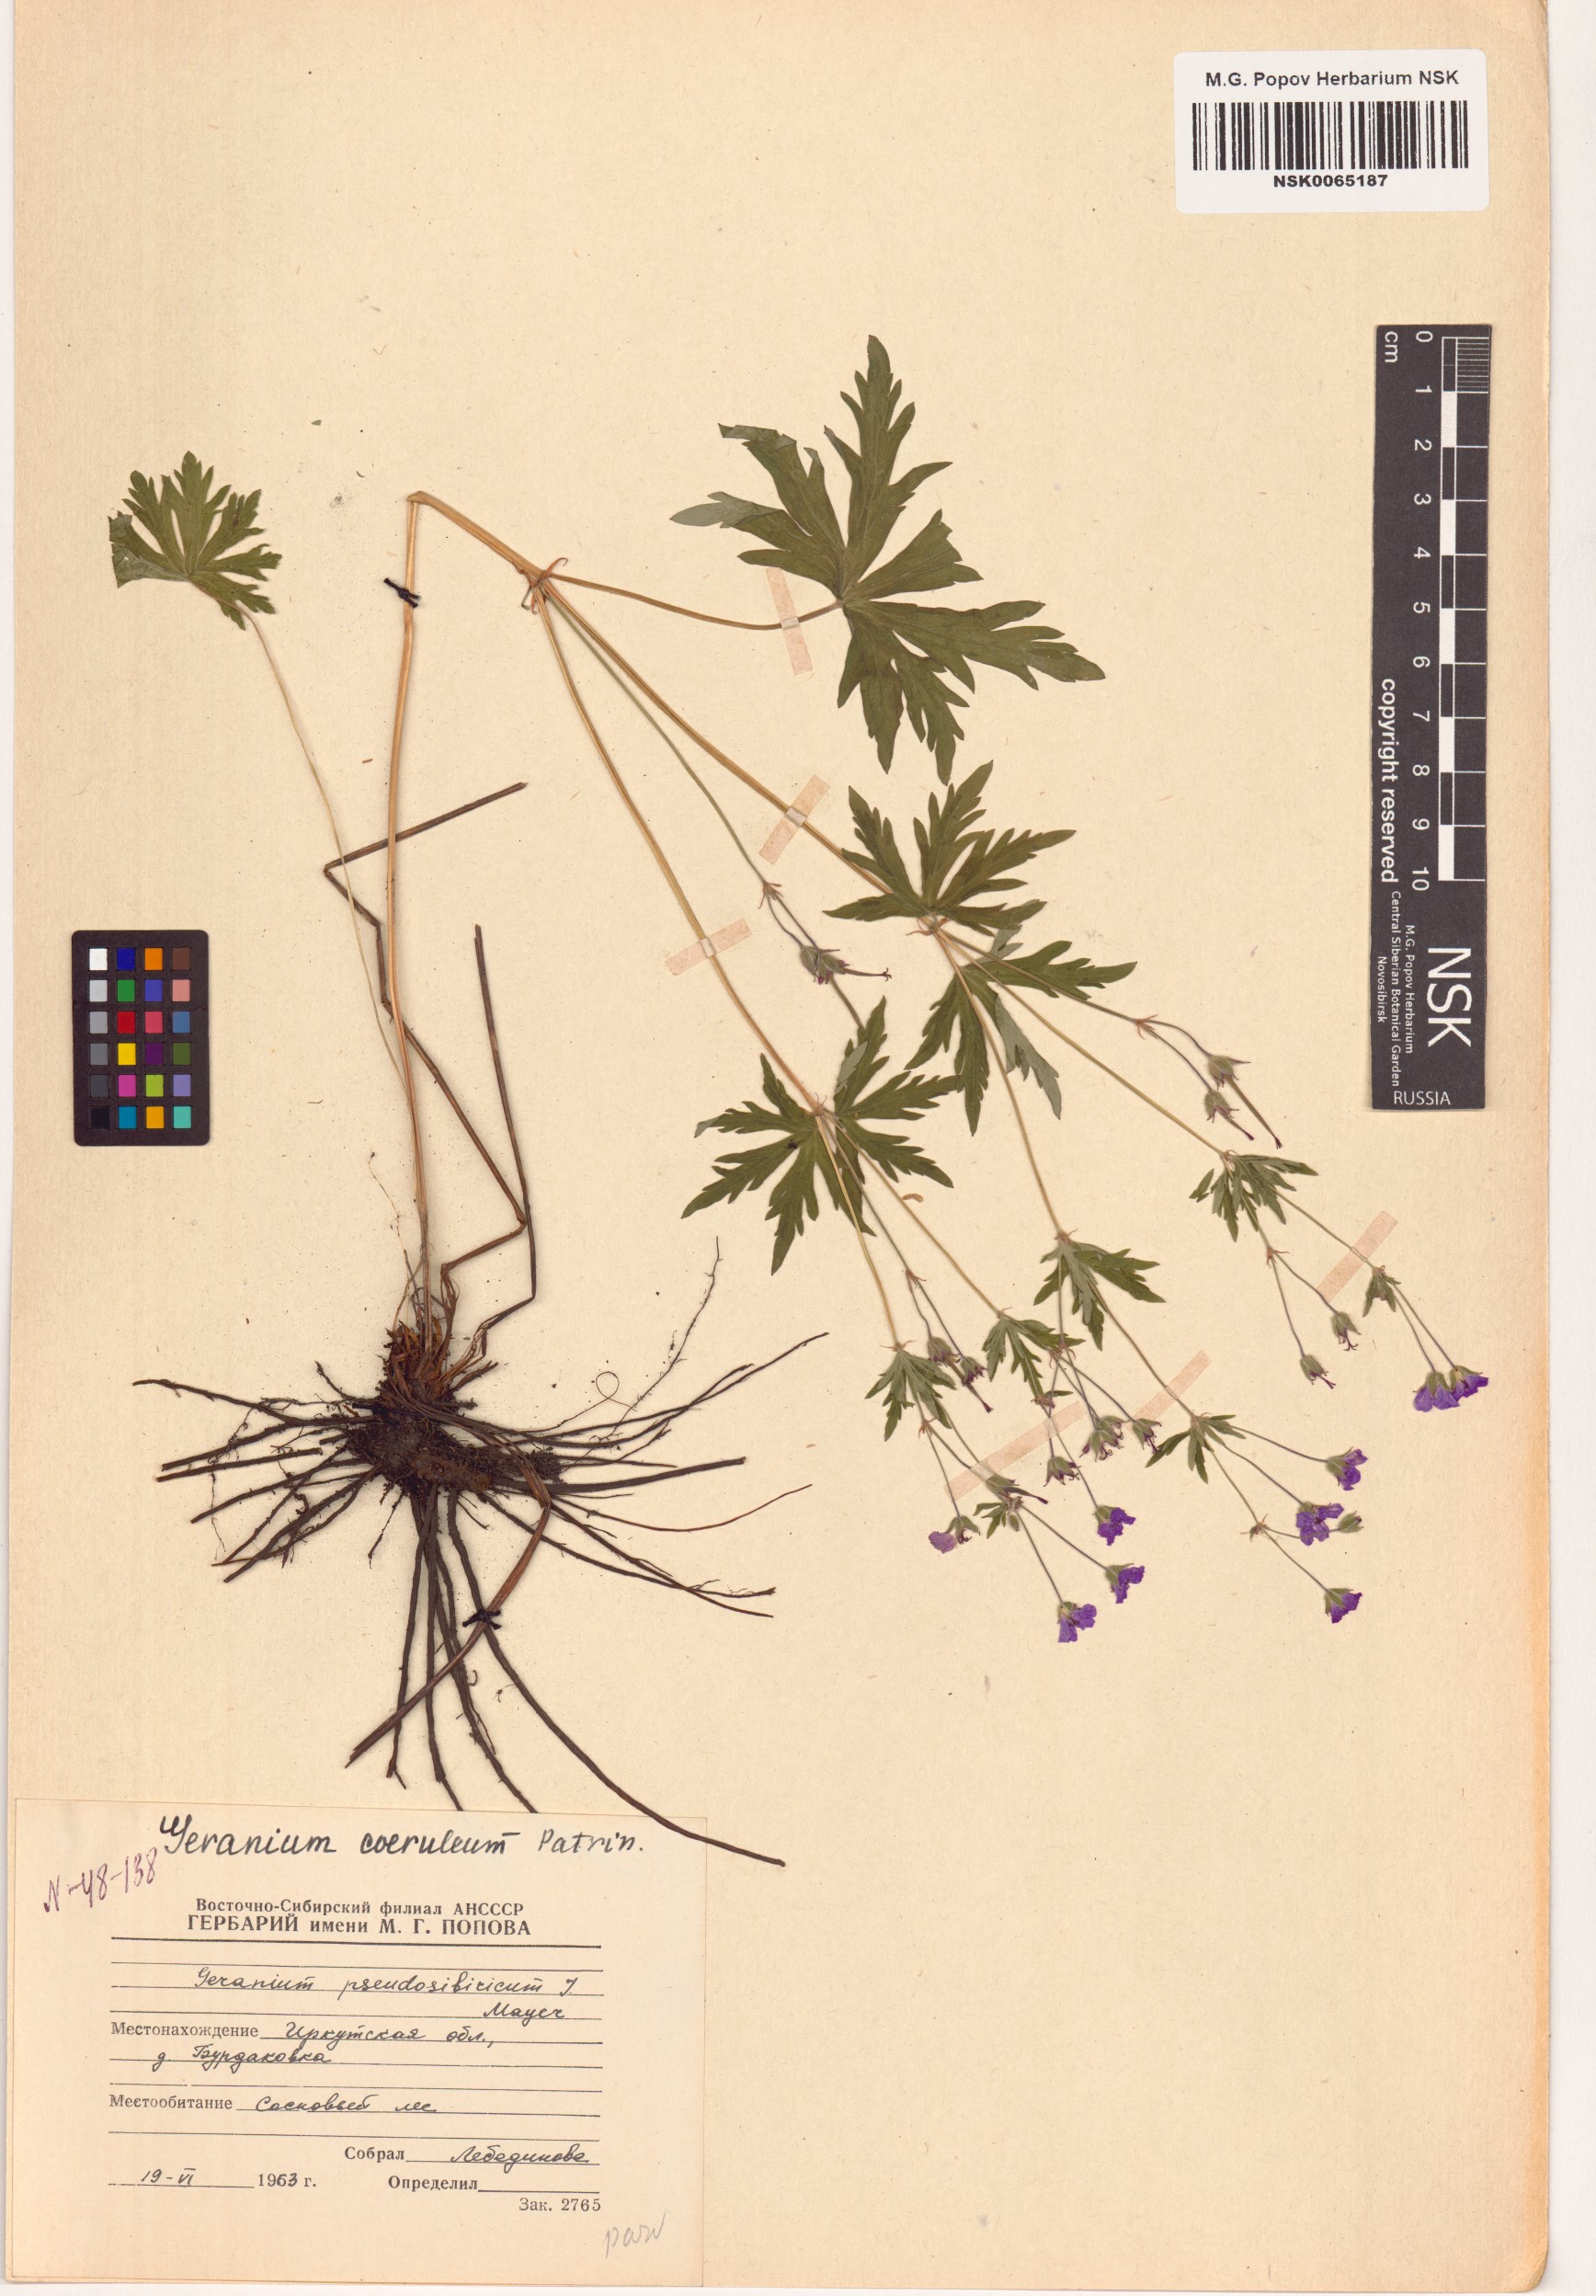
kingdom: Plantae
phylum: Tracheophyta
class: Magnoliopsida
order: Geraniales
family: Geraniaceae
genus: Geranium
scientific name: Geranium pseudosibiricum
